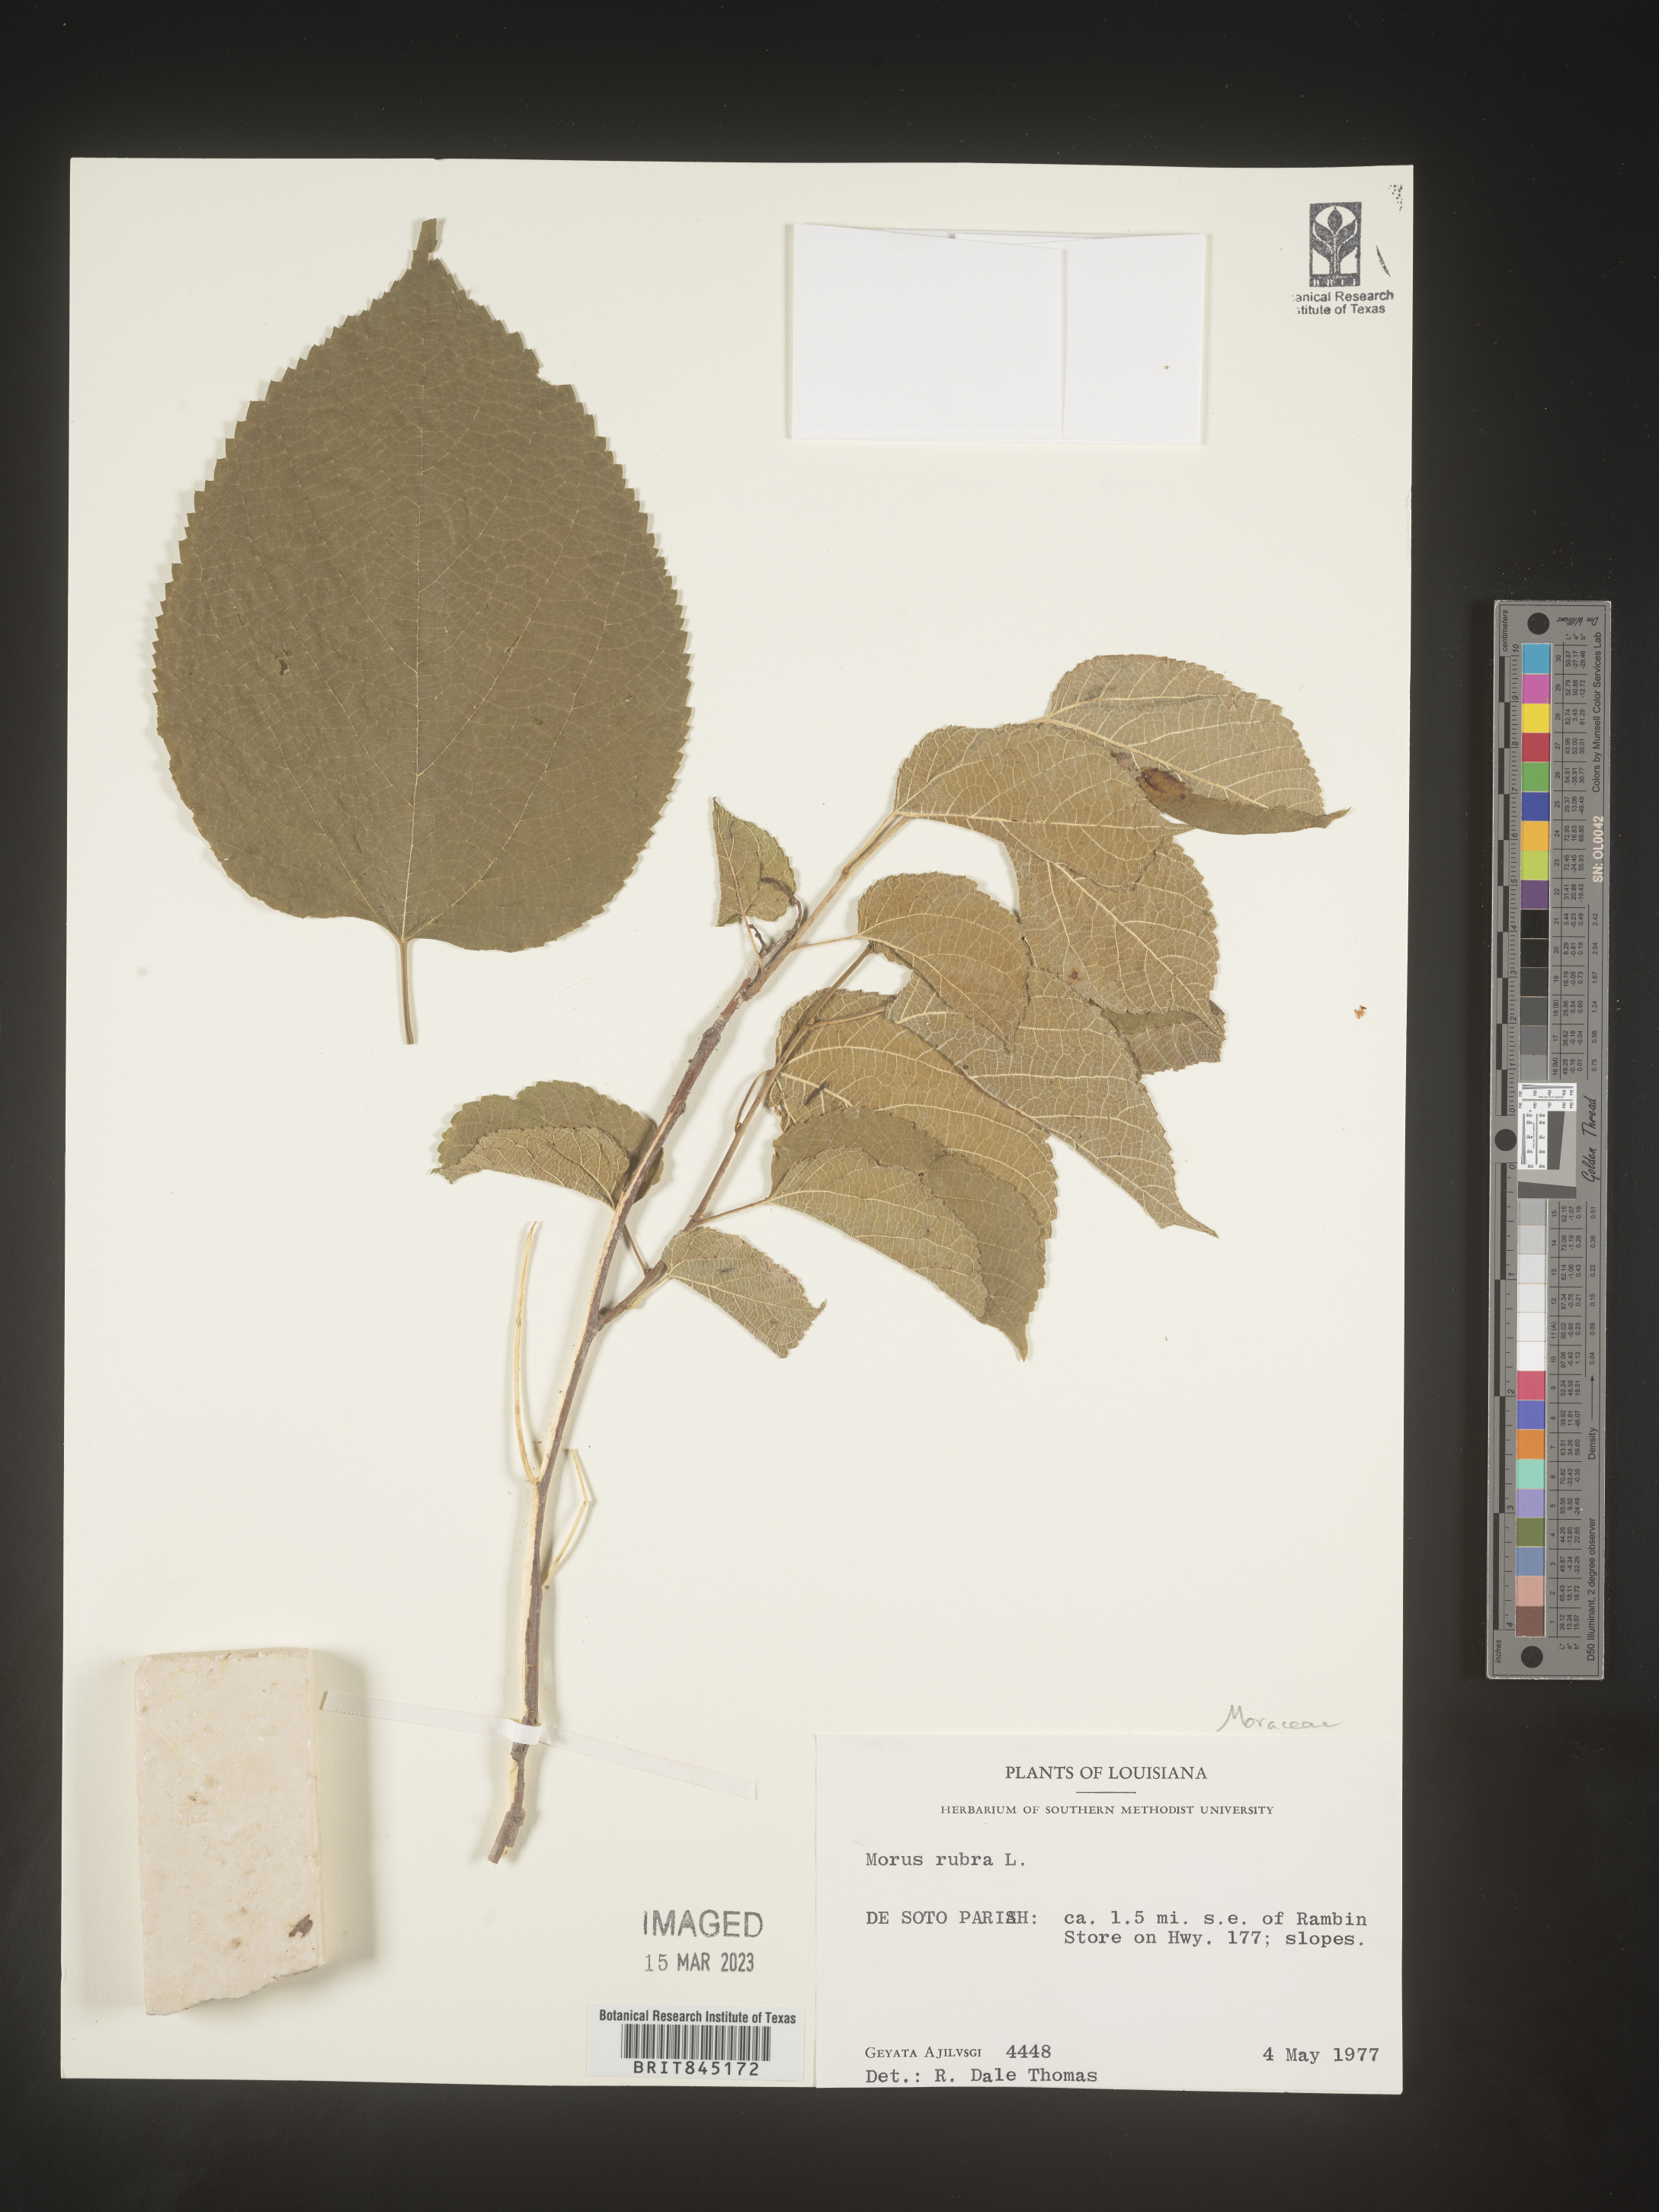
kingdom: Plantae
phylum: Tracheophyta
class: Magnoliopsida
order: Rosales
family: Moraceae
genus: Morus
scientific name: Morus rubra
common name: Red mulberry
